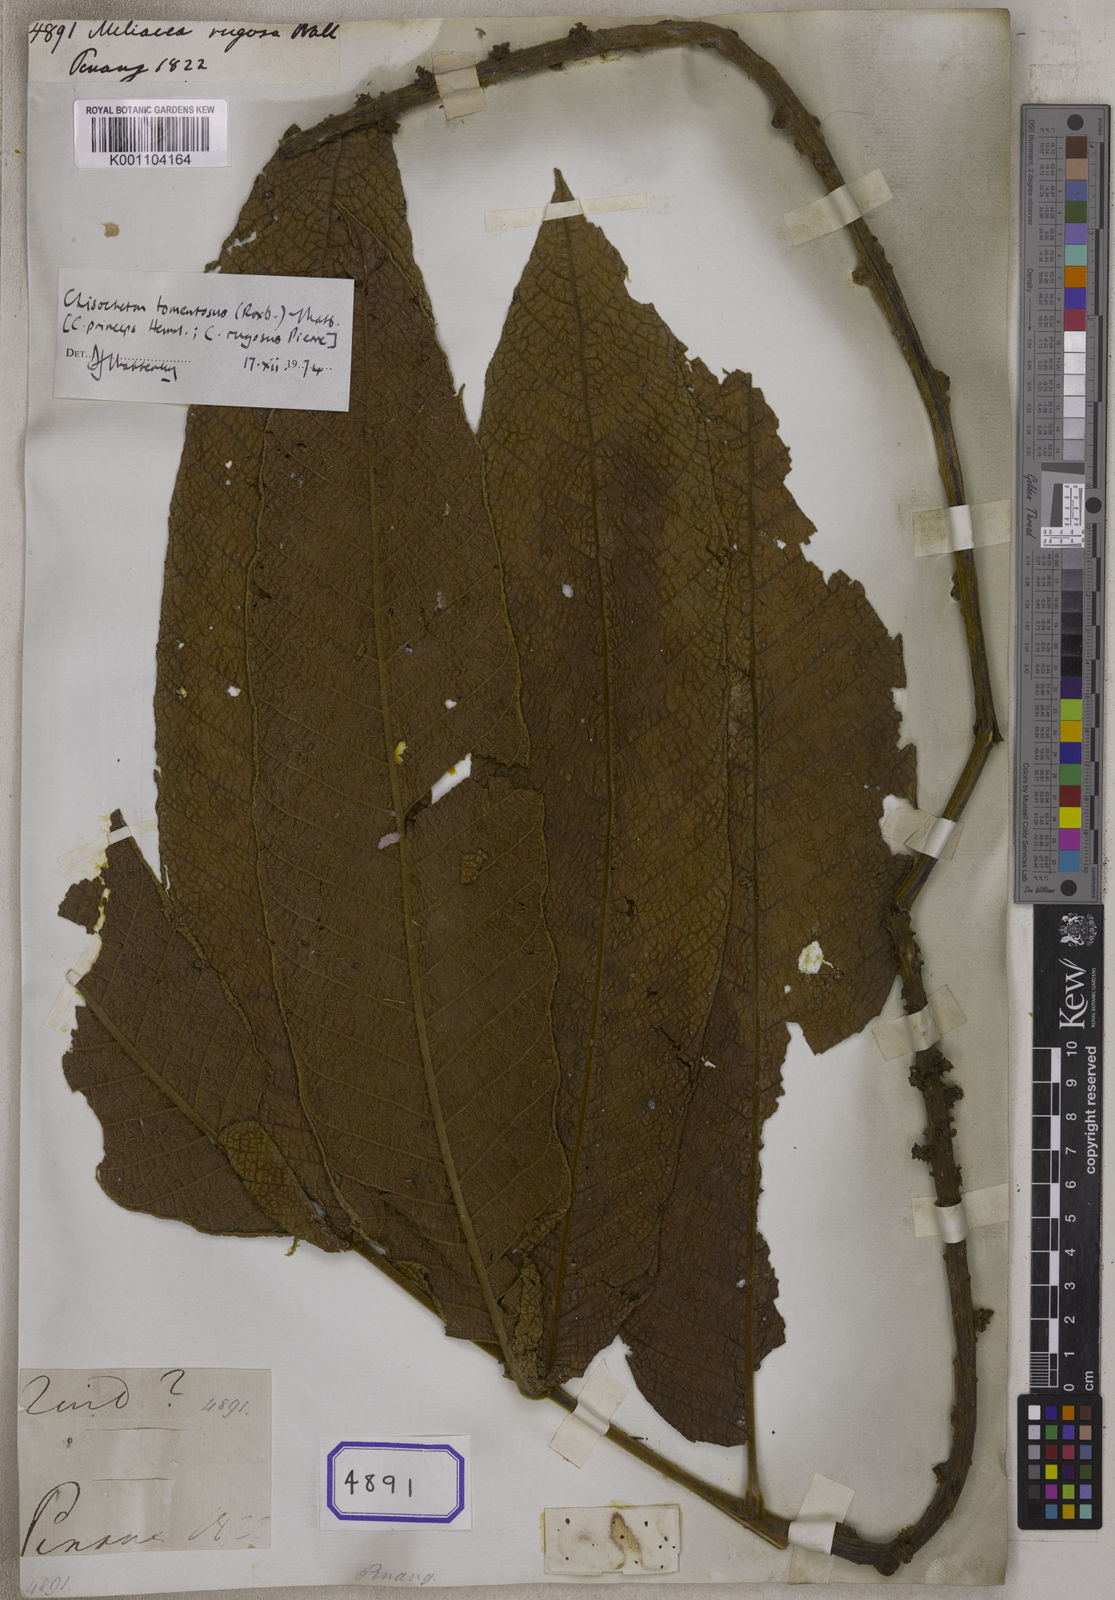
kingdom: Plantae
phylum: Tracheophyta
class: Magnoliopsida
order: Sapindales
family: Meliaceae
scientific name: Meliaceae
